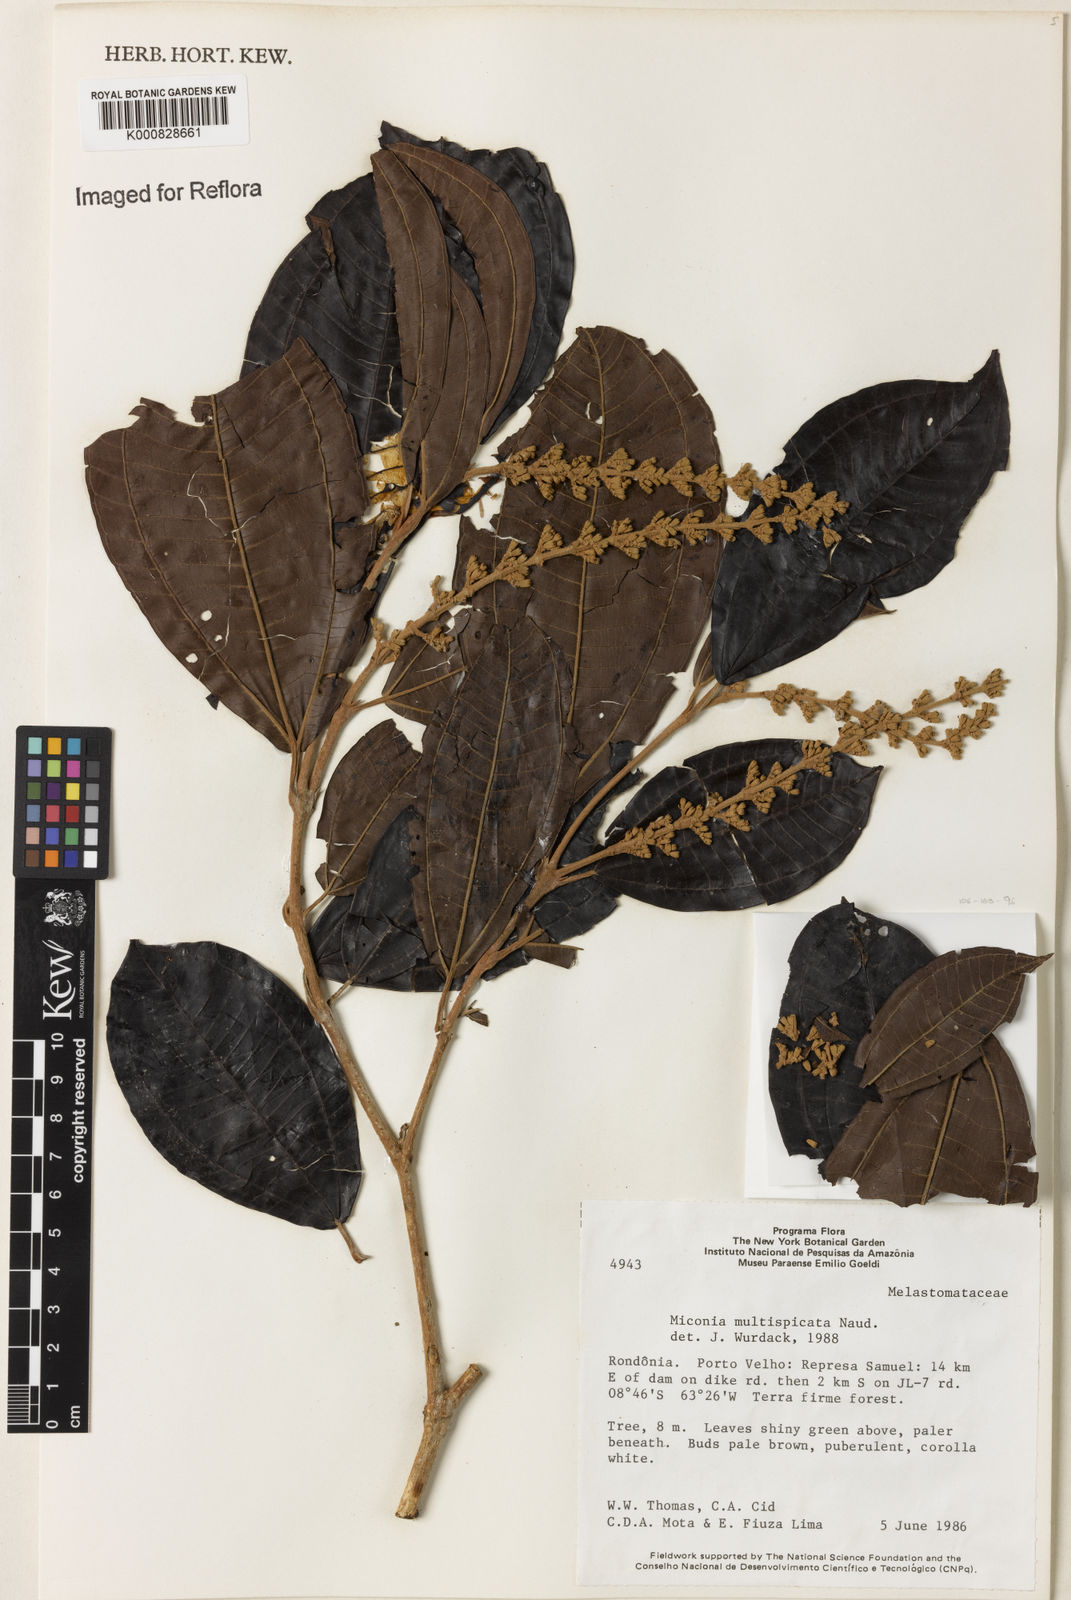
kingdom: Plantae
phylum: Tracheophyta
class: Magnoliopsida
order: Myrtales
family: Melastomataceae
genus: Miconia
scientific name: Miconia multispicata
